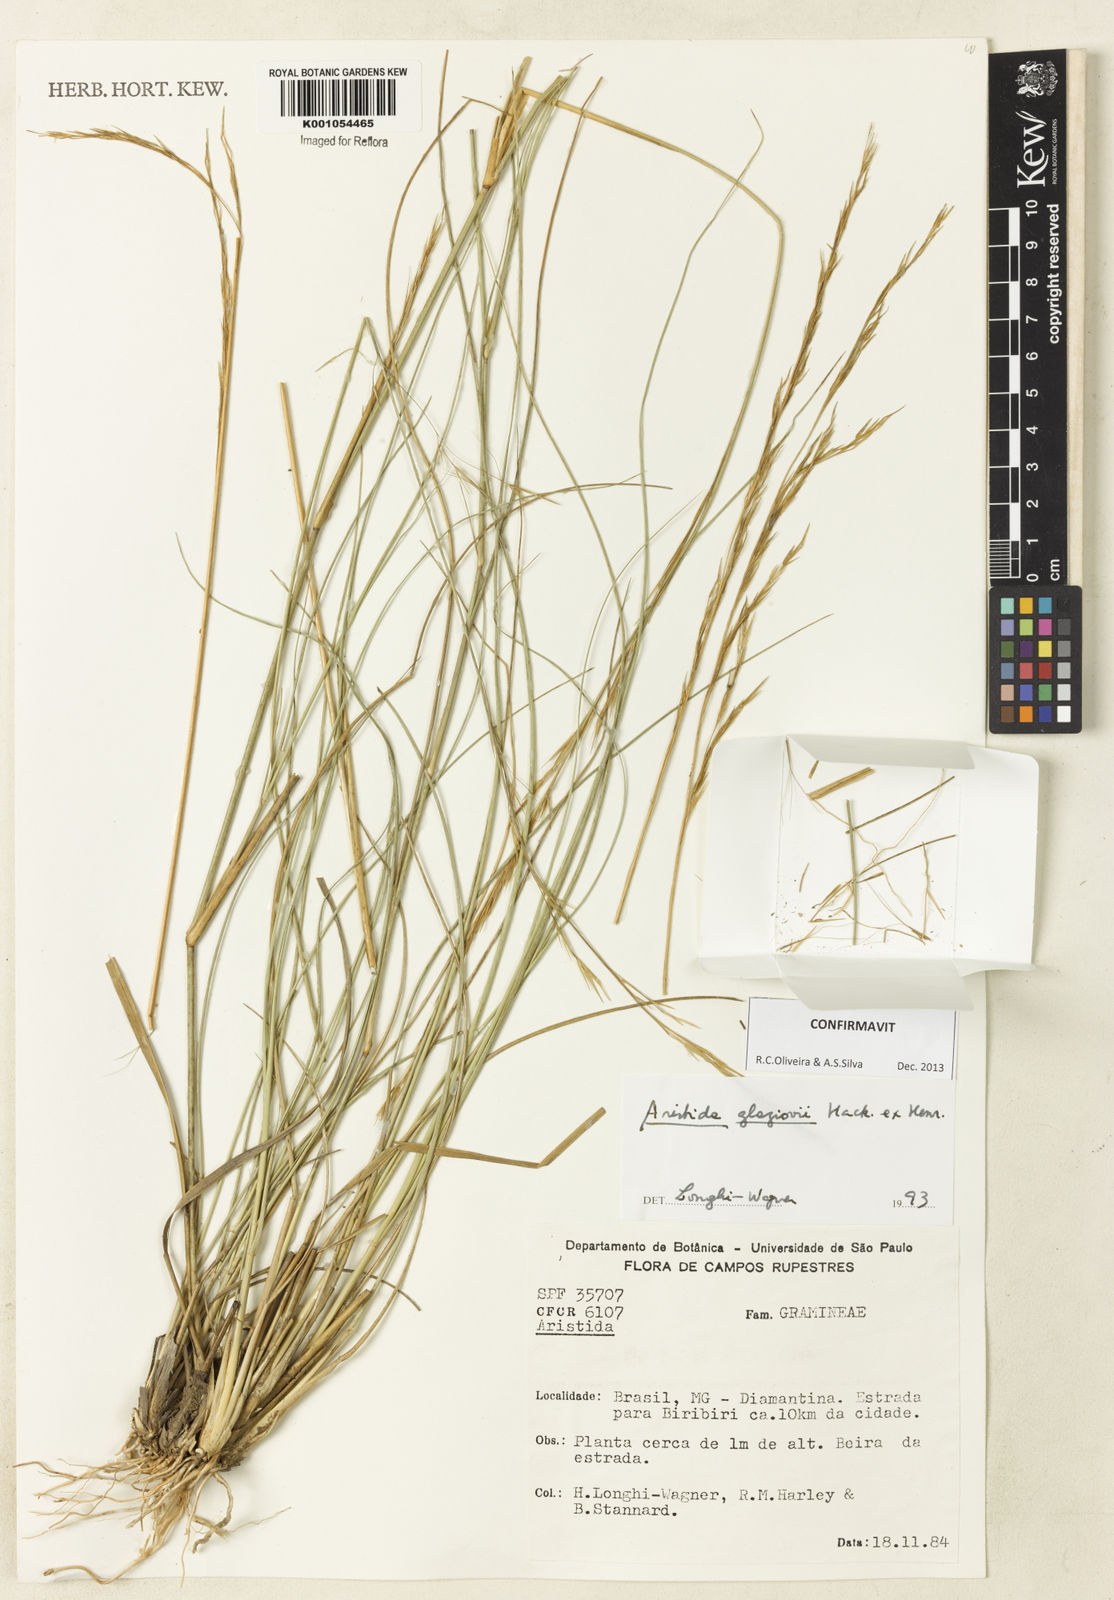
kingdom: Plantae
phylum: Tracheophyta
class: Liliopsida
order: Poales
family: Poaceae
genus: Aristida
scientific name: Aristida glaziovii
